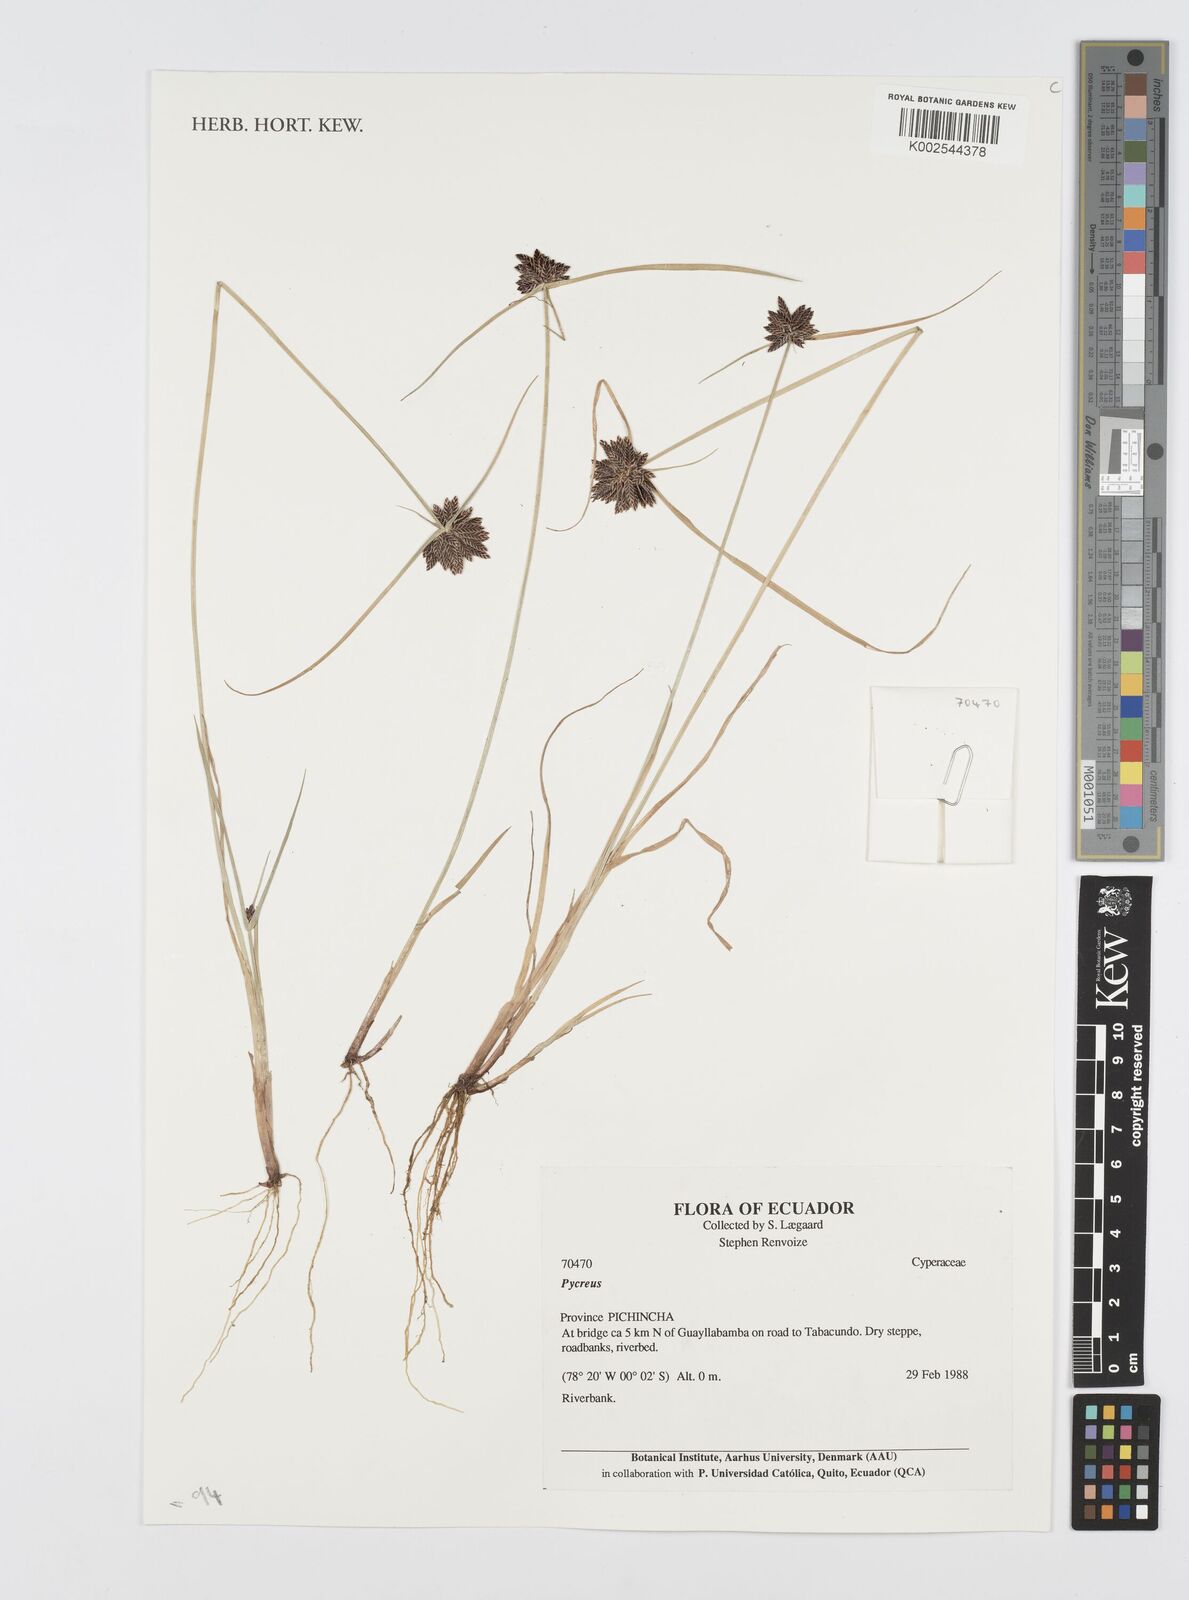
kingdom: Plantae
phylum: Tracheophyta
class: Liliopsida
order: Poales
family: Cyperaceae
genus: Cyperus
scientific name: Cyperus
